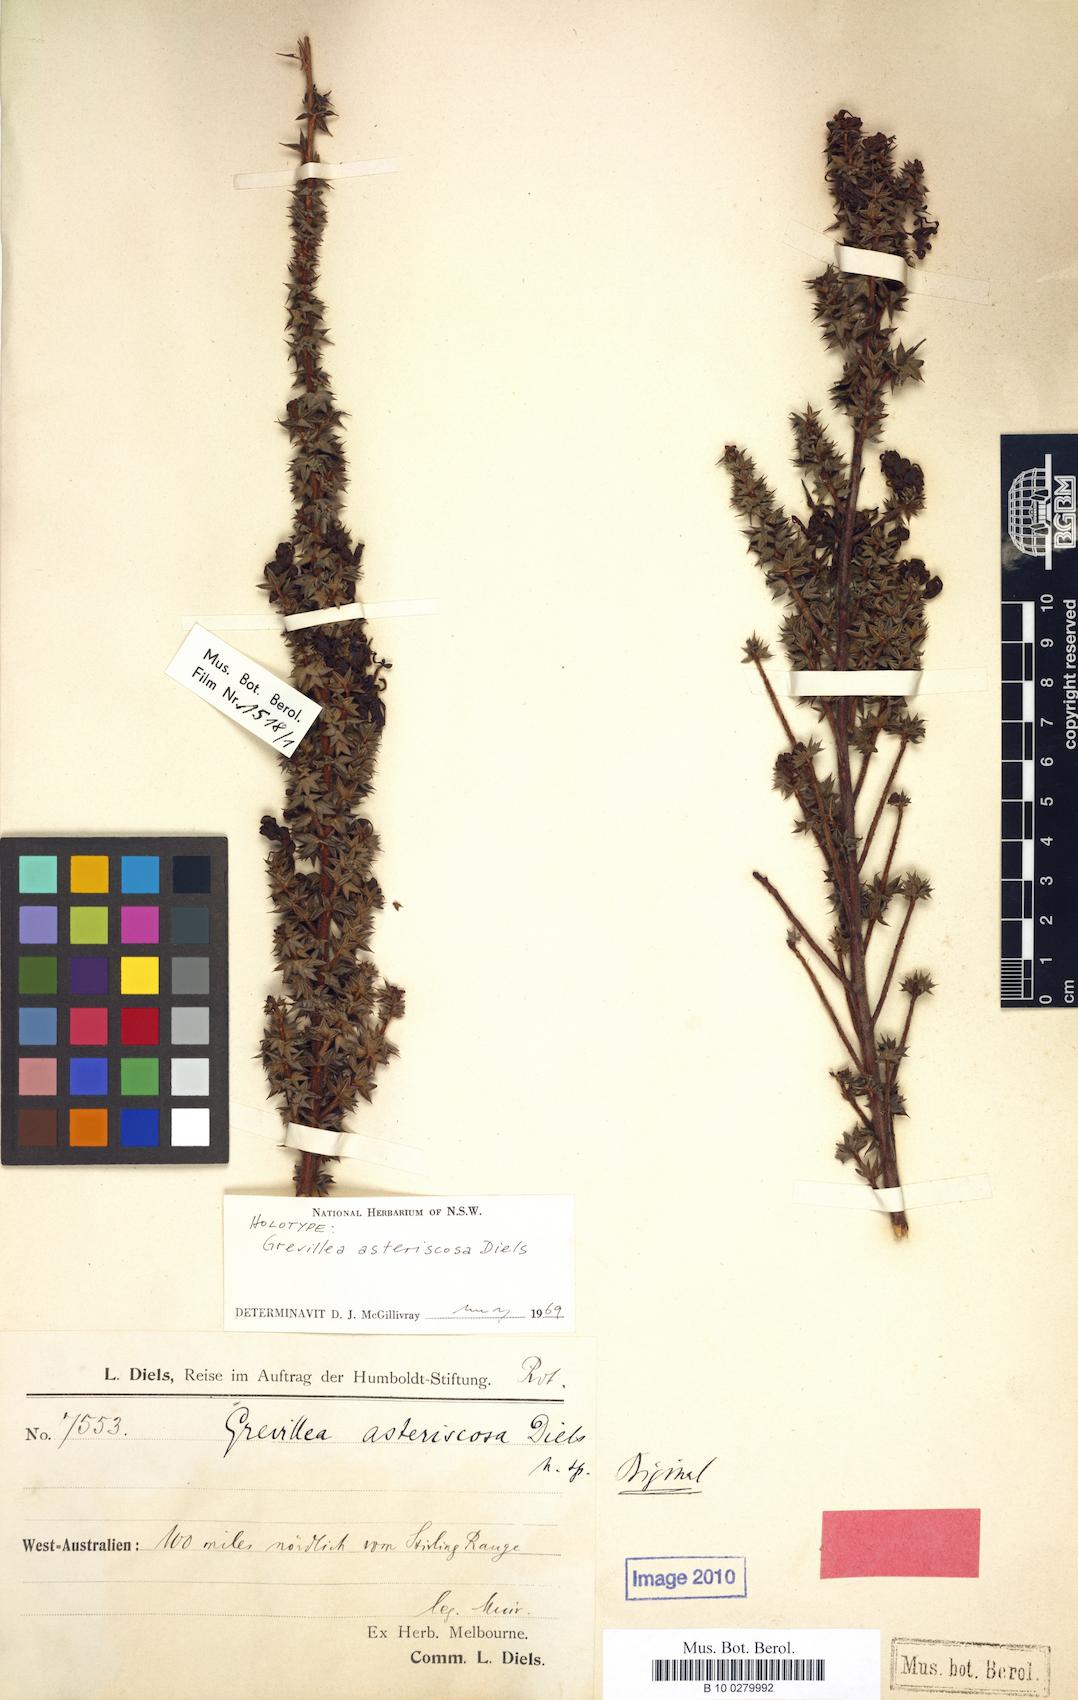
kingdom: Plantae
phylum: Tracheophyta
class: Magnoliopsida
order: Proteales
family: Proteaceae
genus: Grevillea
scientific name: Grevillea asteriscosa
